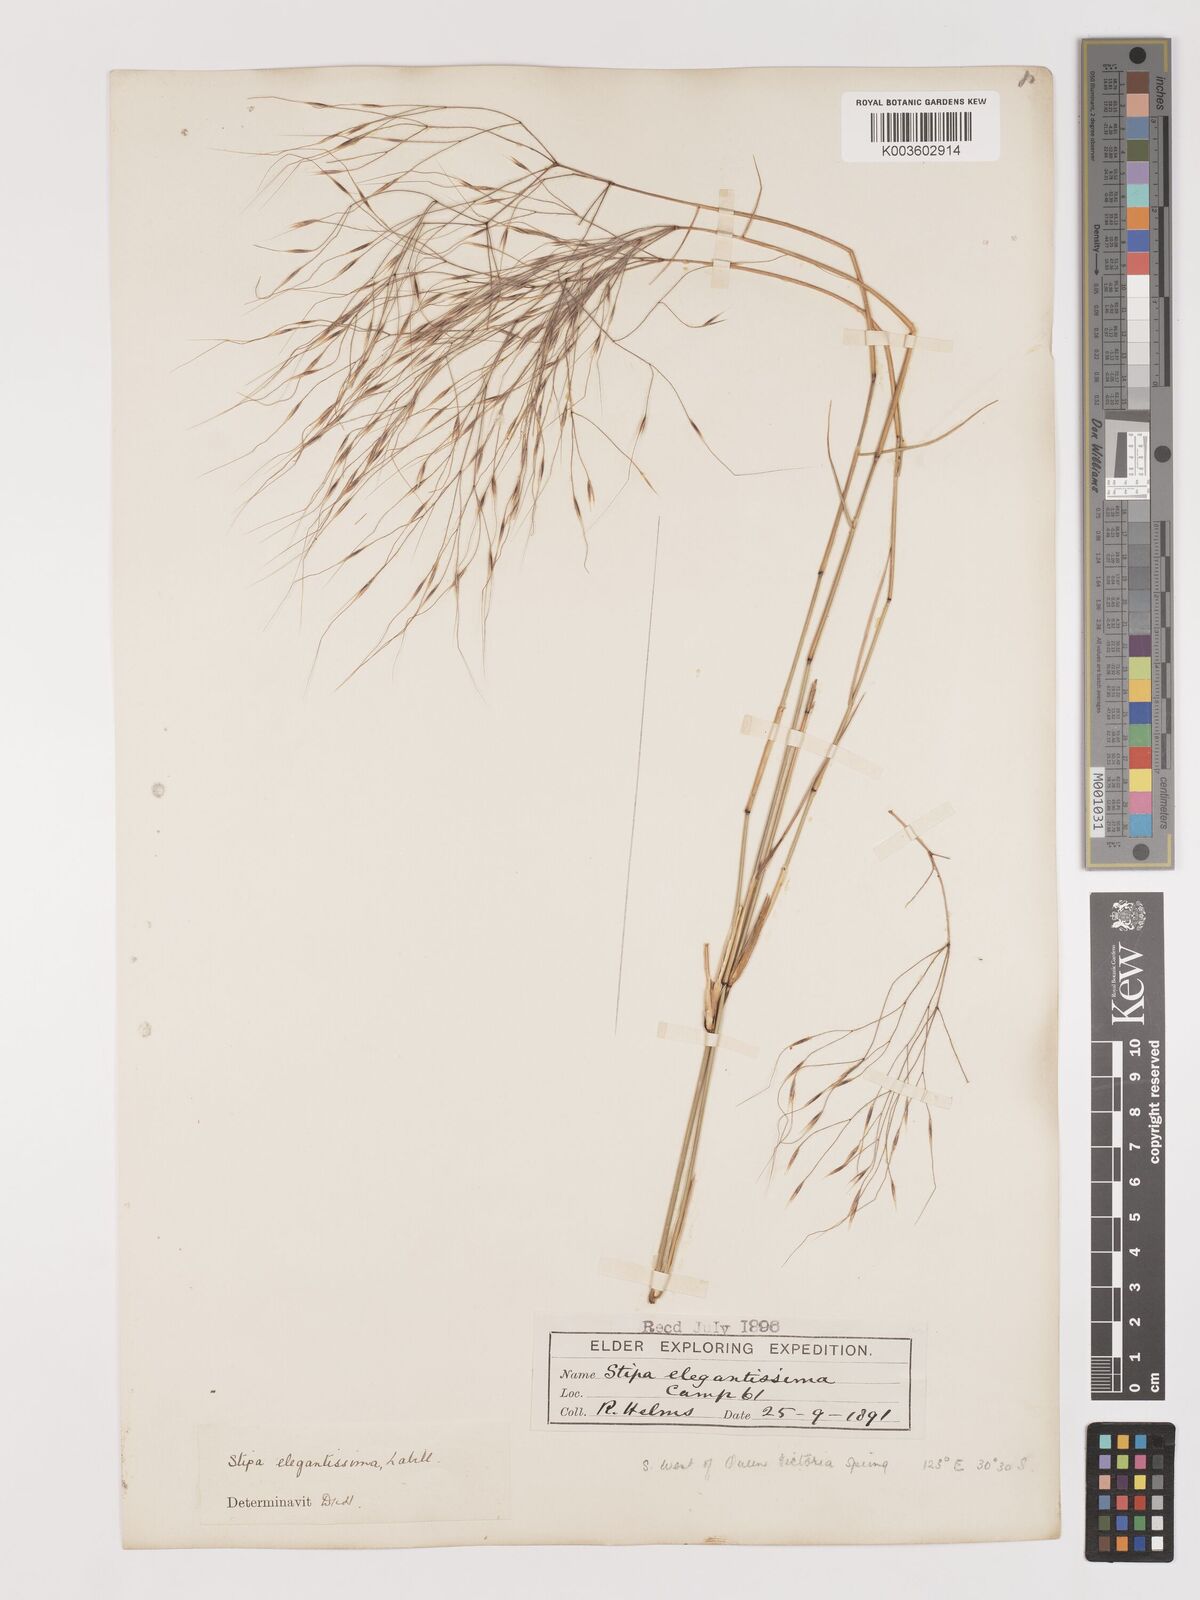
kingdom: Plantae
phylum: Tracheophyta
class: Liliopsida
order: Poales
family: Poaceae
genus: Austrostipa
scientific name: Austrostipa elegantissima
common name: Feather spear grass
